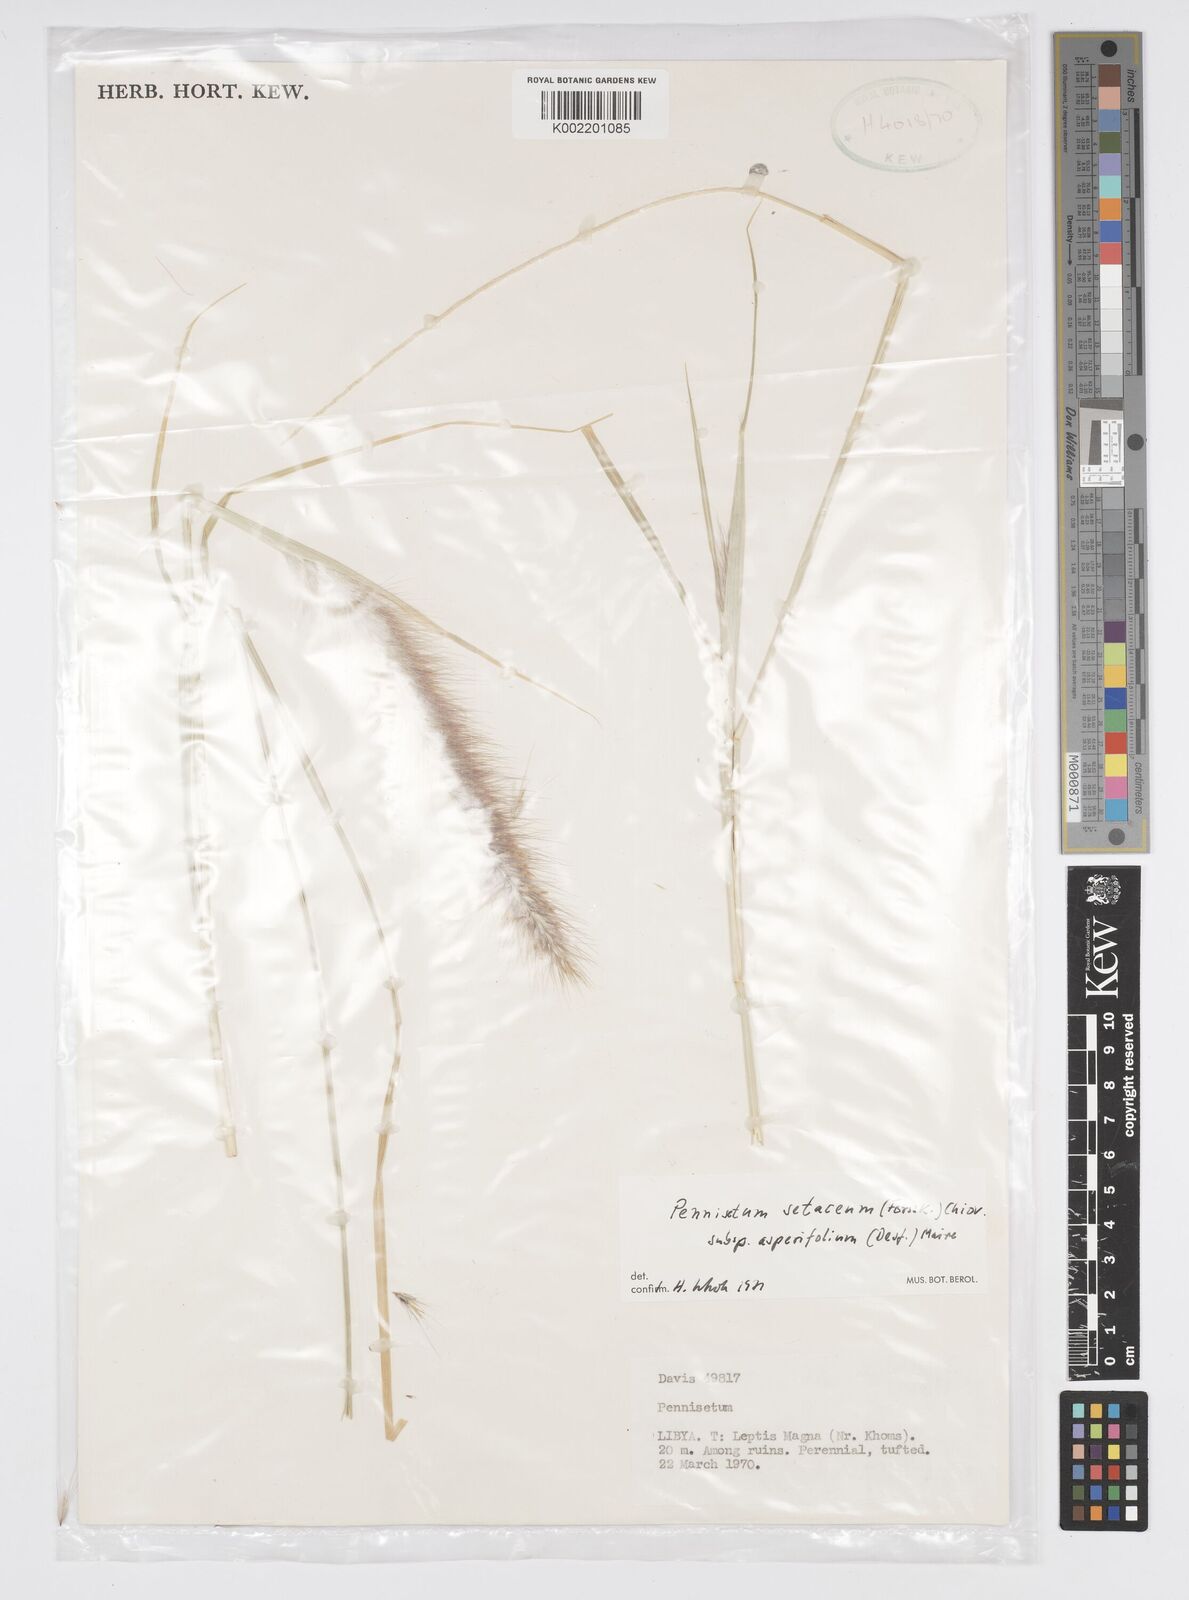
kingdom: Plantae
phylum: Tracheophyta
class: Liliopsida
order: Poales
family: Poaceae
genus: Cenchrus
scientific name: Cenchrus setaceus
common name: Crimson fountaingrass
